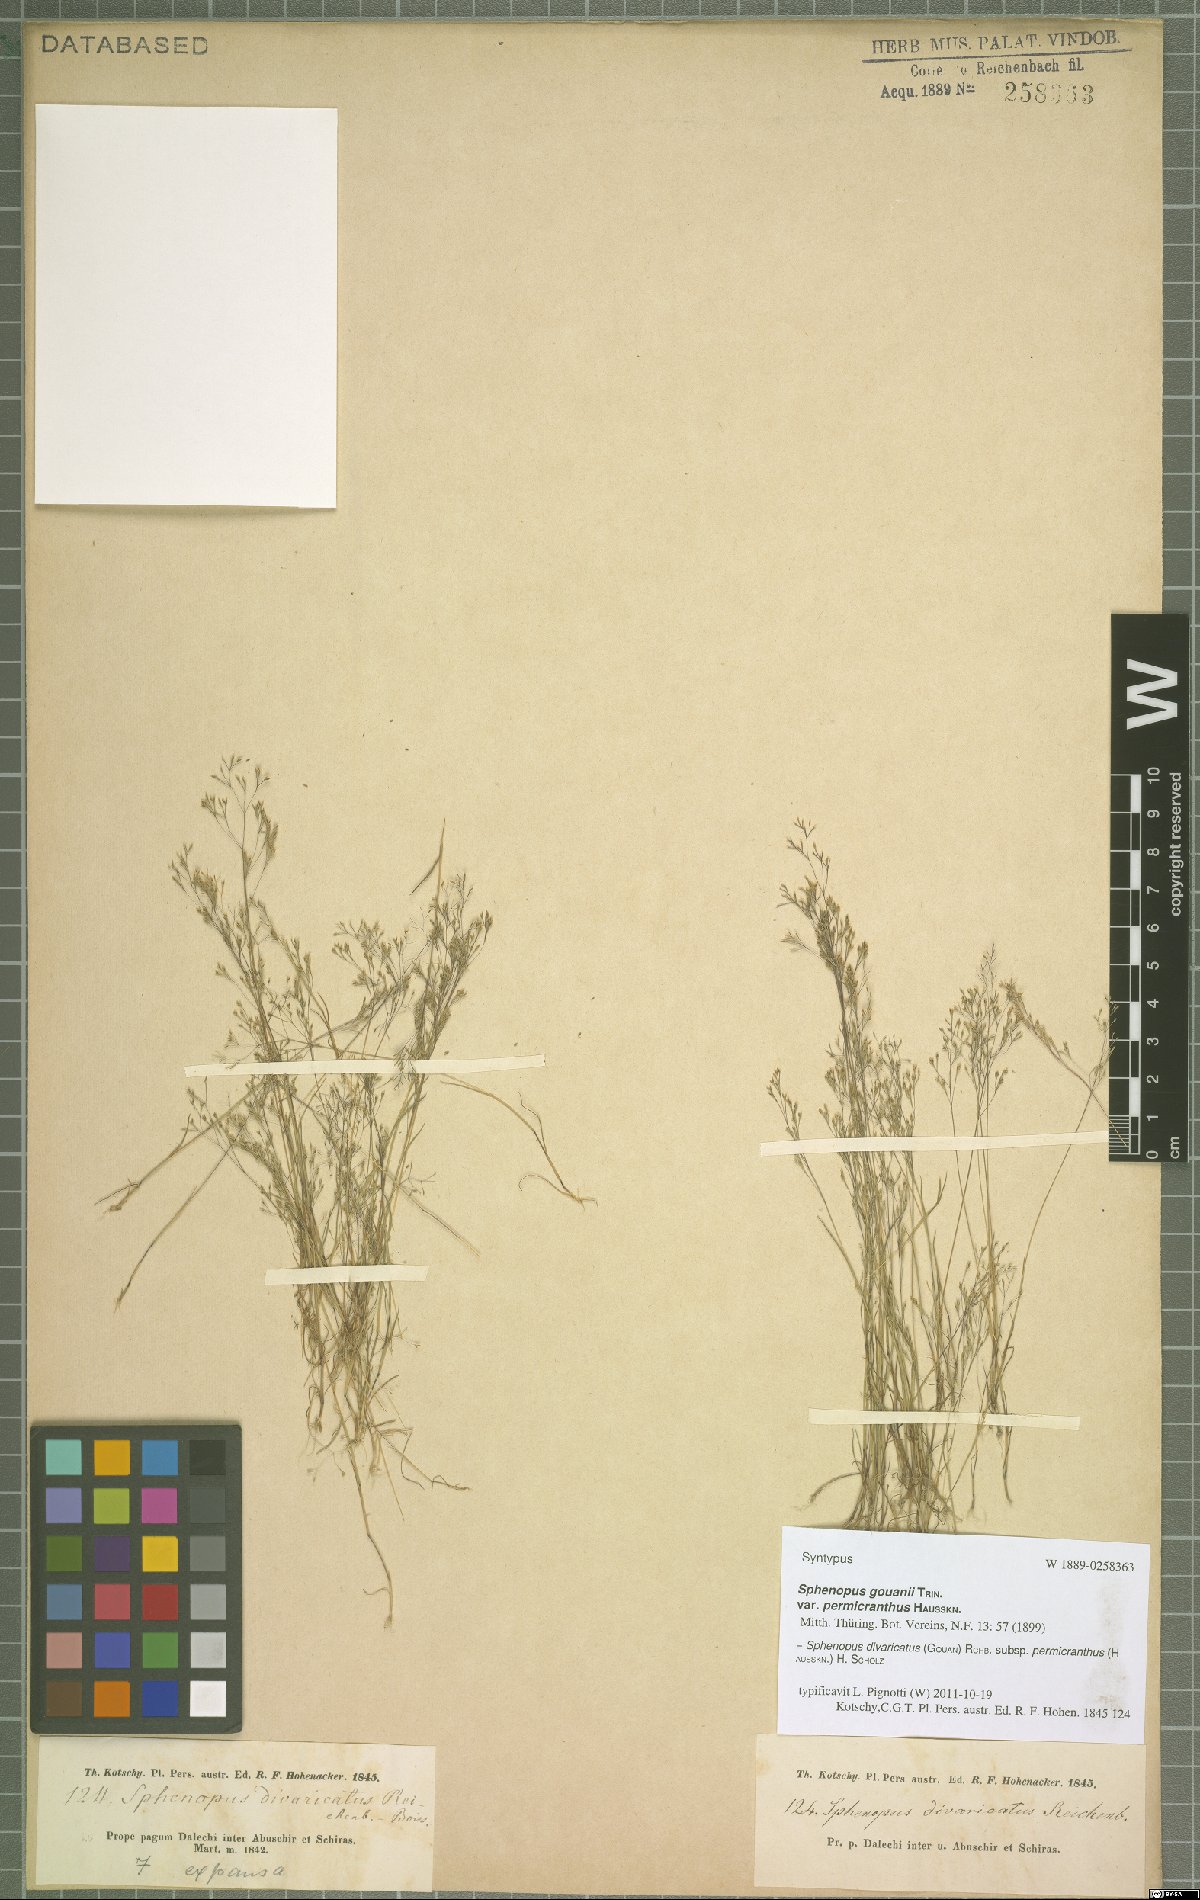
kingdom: Plantae
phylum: Tracheophyta
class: Liliopsida
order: Poales
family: Poaceae
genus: Sphenopus
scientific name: Sphenopus divaricatus
